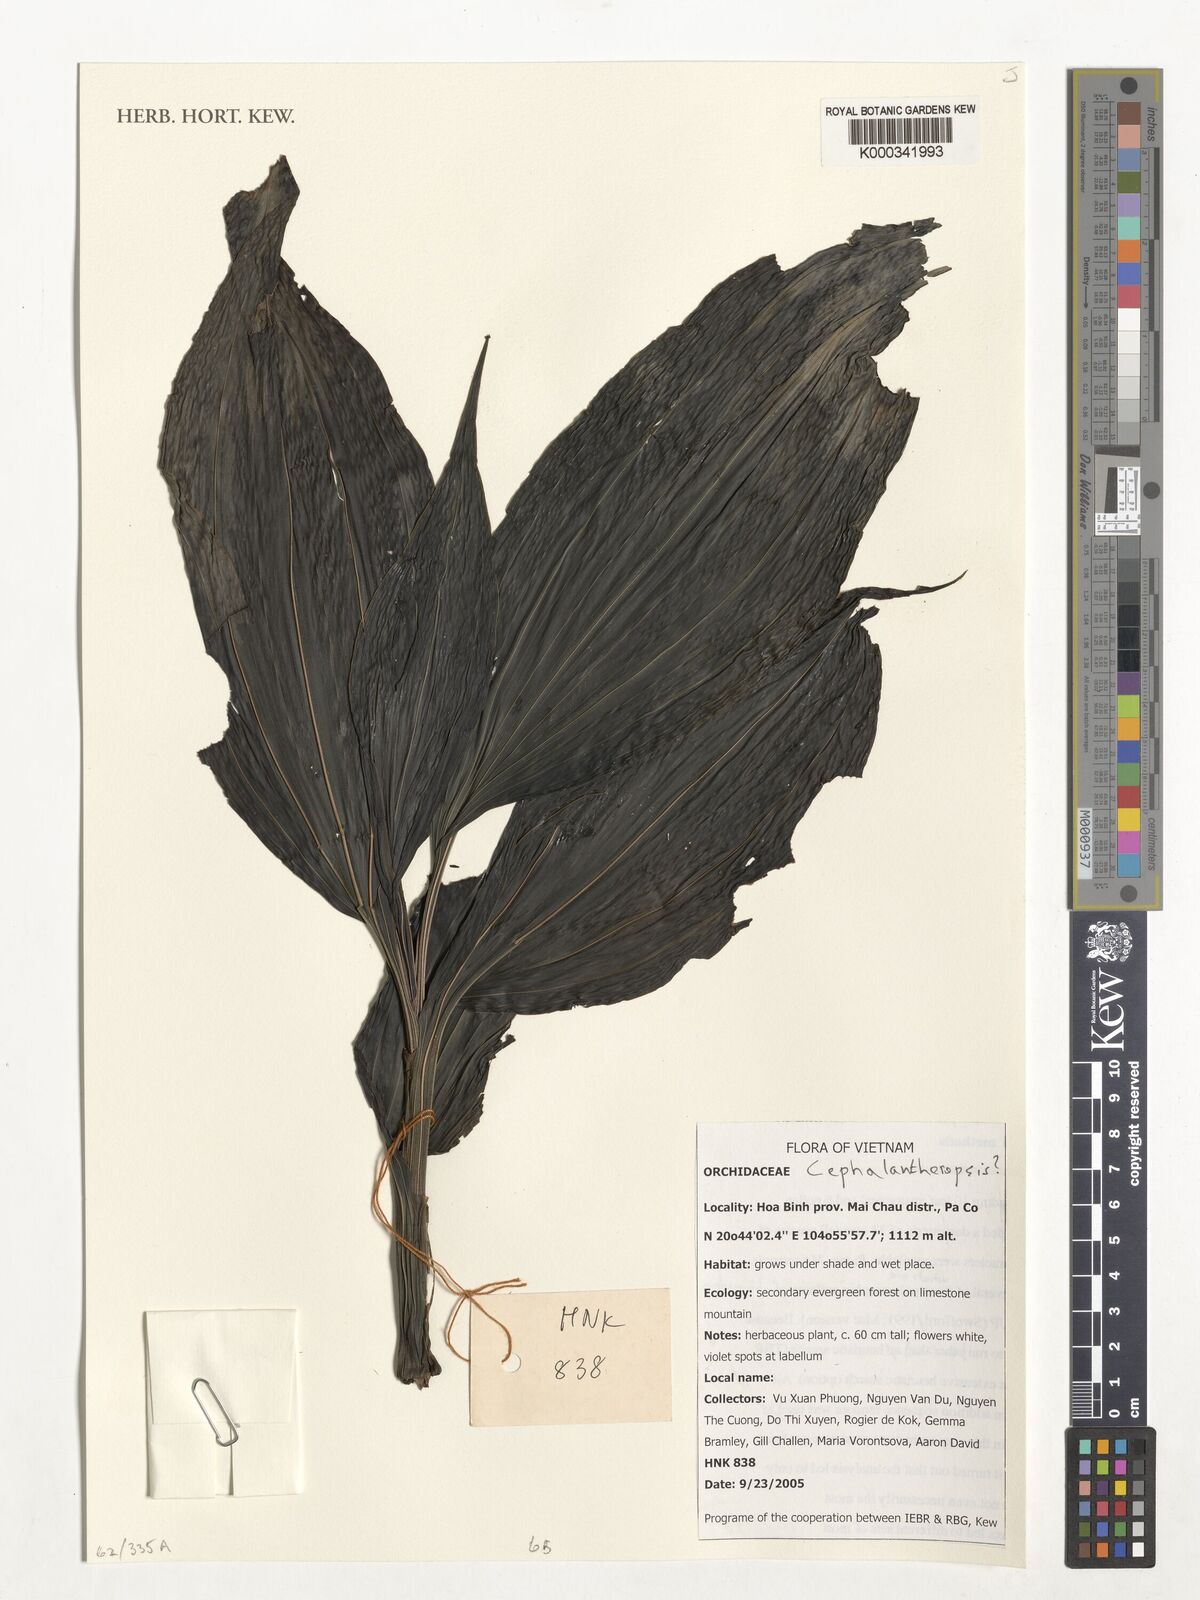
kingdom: Plantae
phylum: Tracheophyta
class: Liliopsida
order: Asparagales
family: Orchidaceae
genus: Calanthe
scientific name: Calanthe
